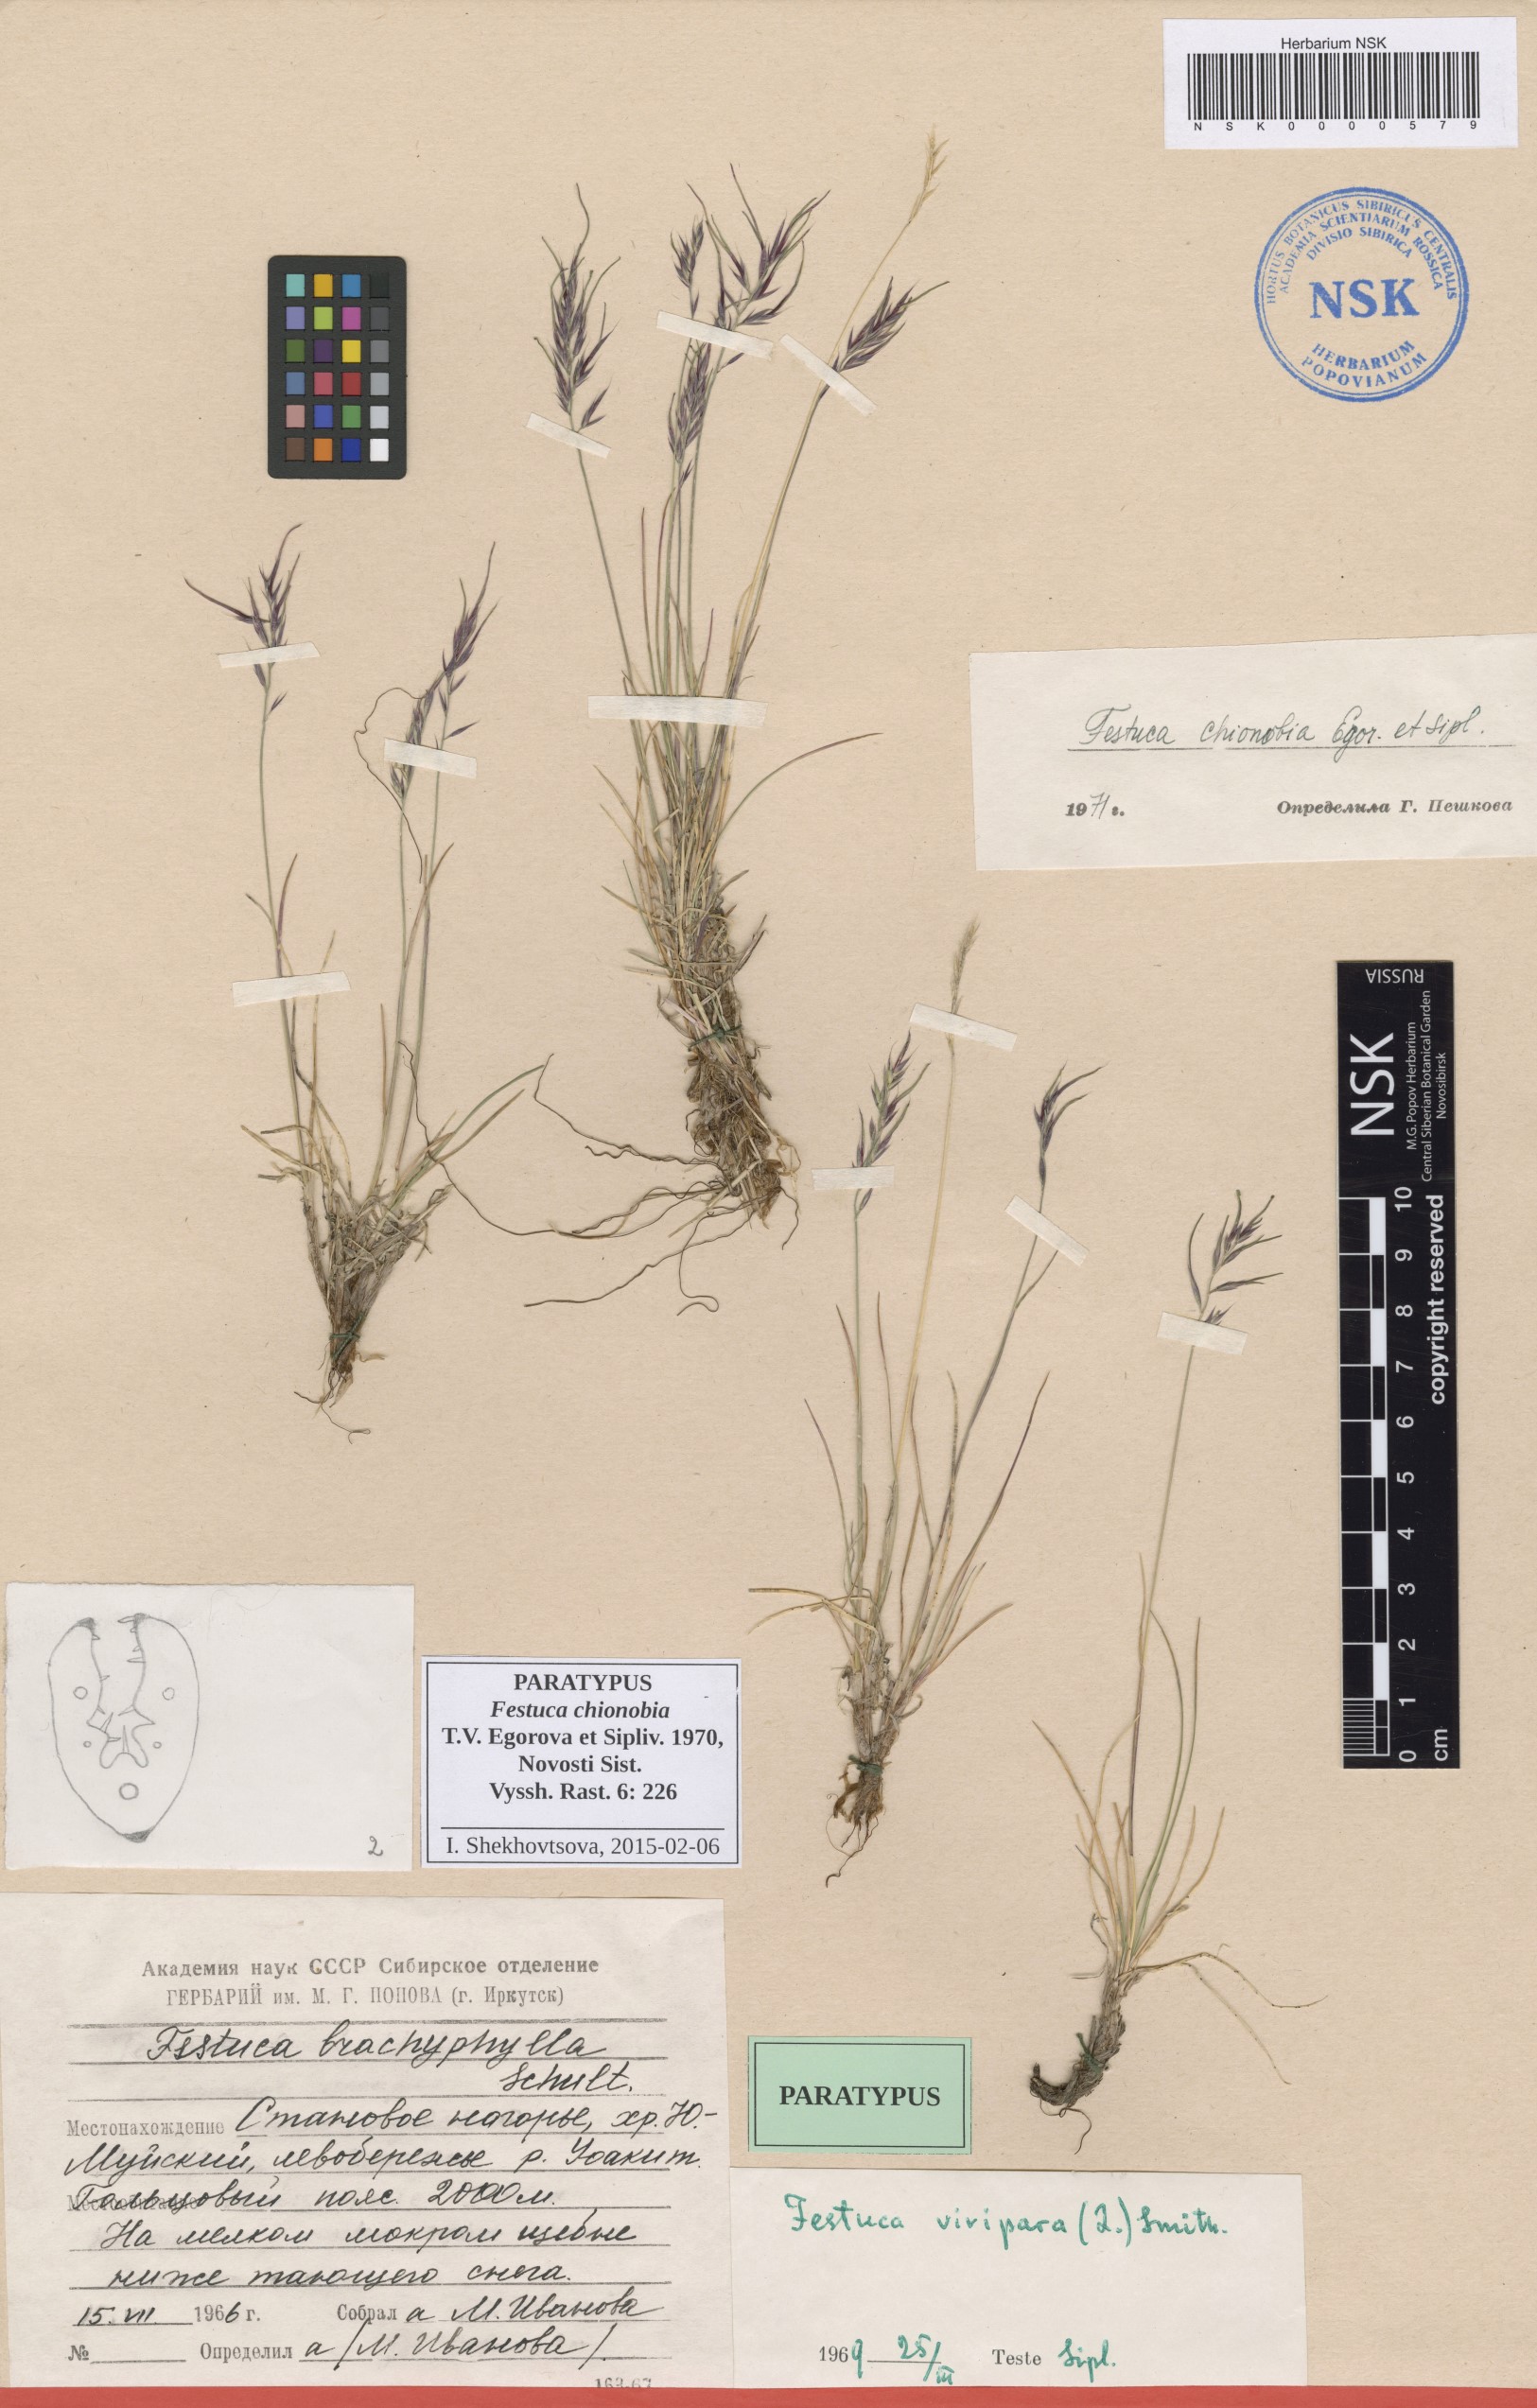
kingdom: Plantae
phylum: Tracheophyta
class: Liliopsida
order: Poales
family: Poaceae
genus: Festuca
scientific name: Festuca auriculata
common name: Eared fescue
